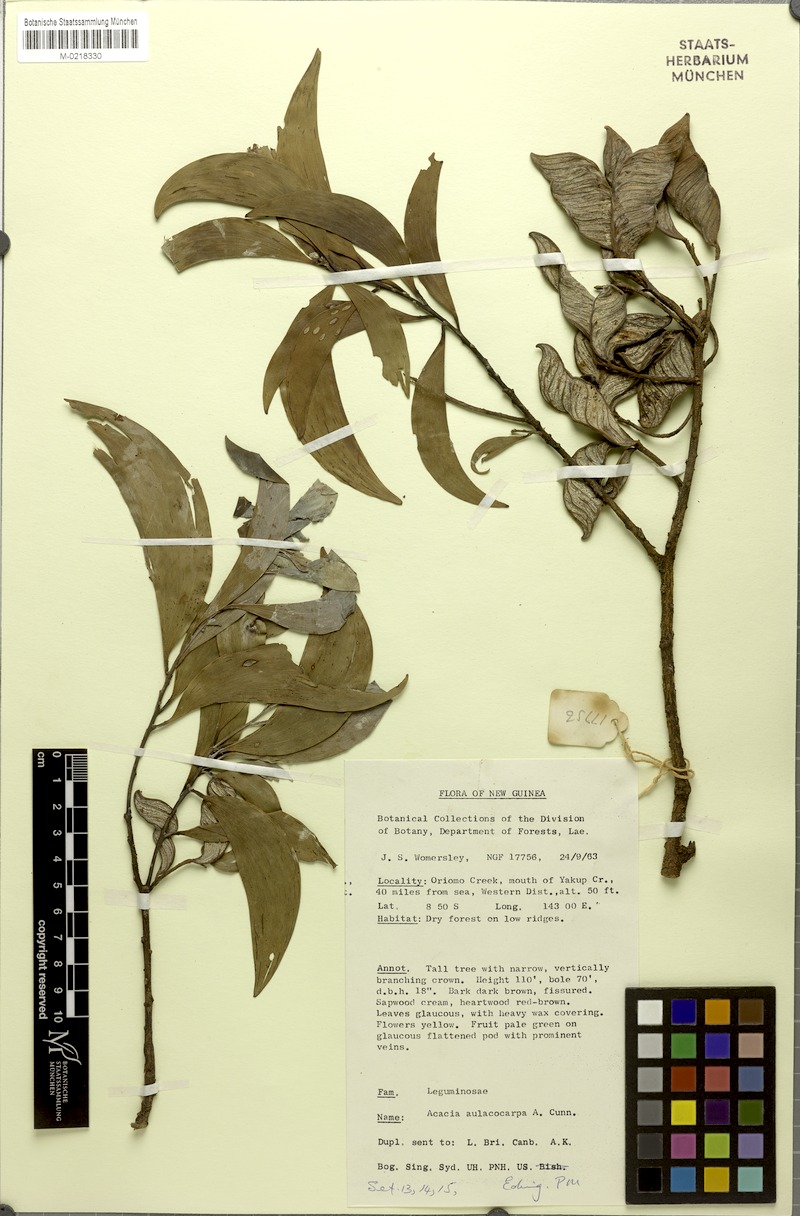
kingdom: Plantae
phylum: Tracheophyta
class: Magnoliopsida
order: Fabales
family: Fabaceae
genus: Acacia
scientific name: Acacia aulacocarpa
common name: Black wattle
